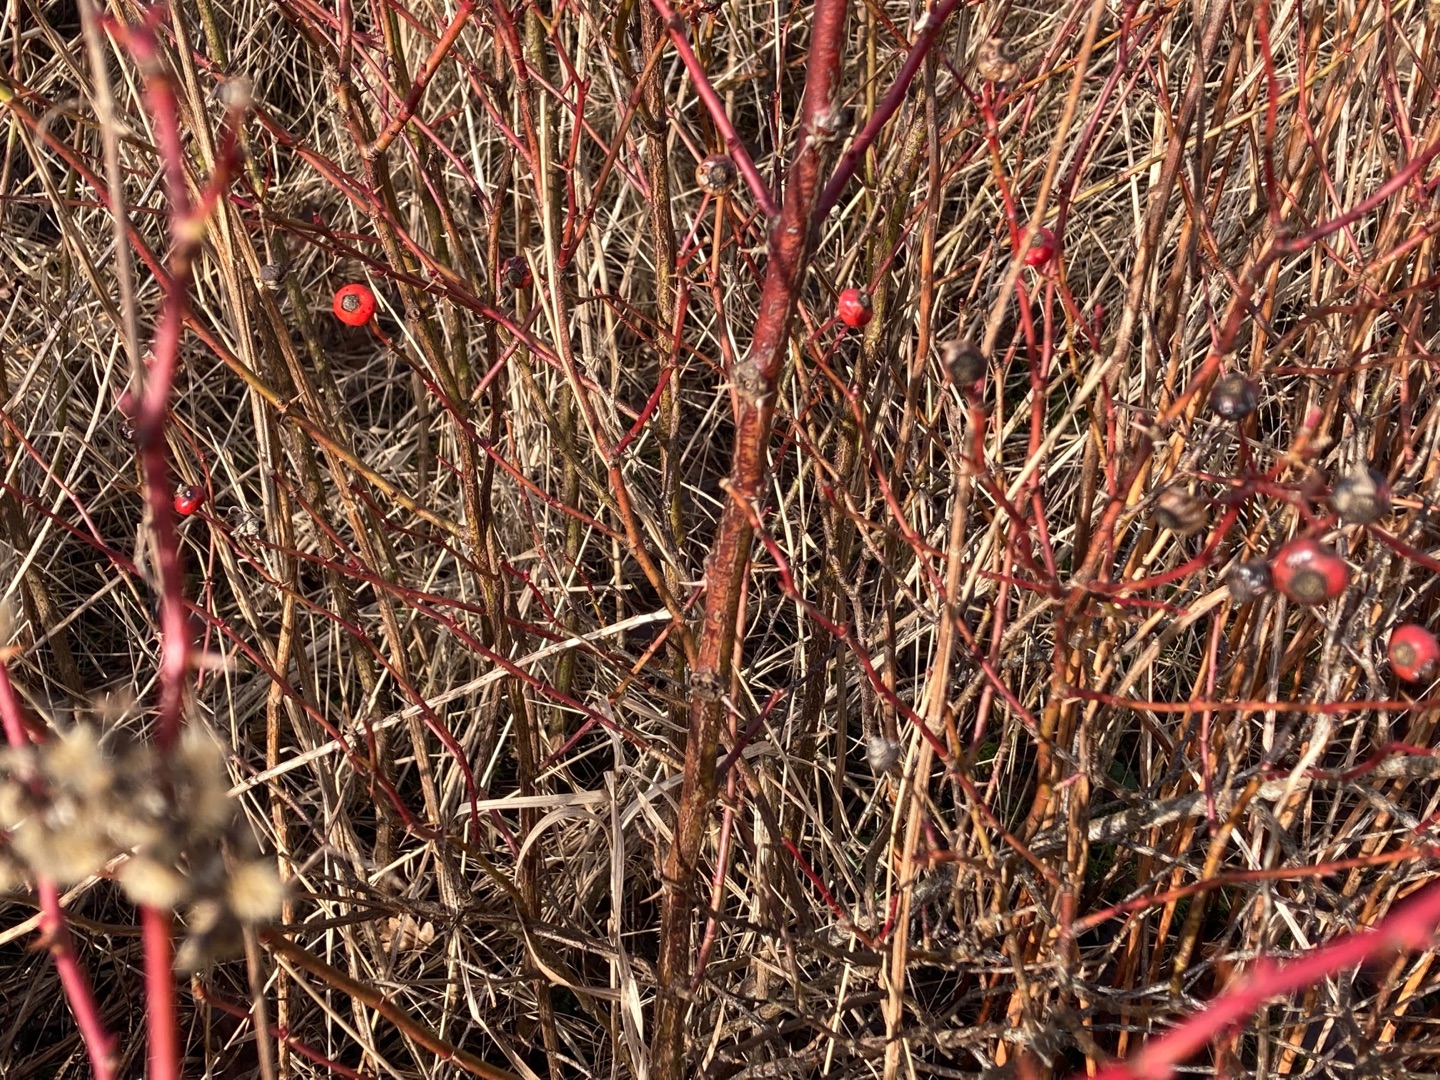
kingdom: Plantae
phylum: Tracheophyta
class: Magnoliopsida
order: Rosales
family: Rosaceae
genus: Rosa
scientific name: Rosa carolina
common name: Glansbladet rose
